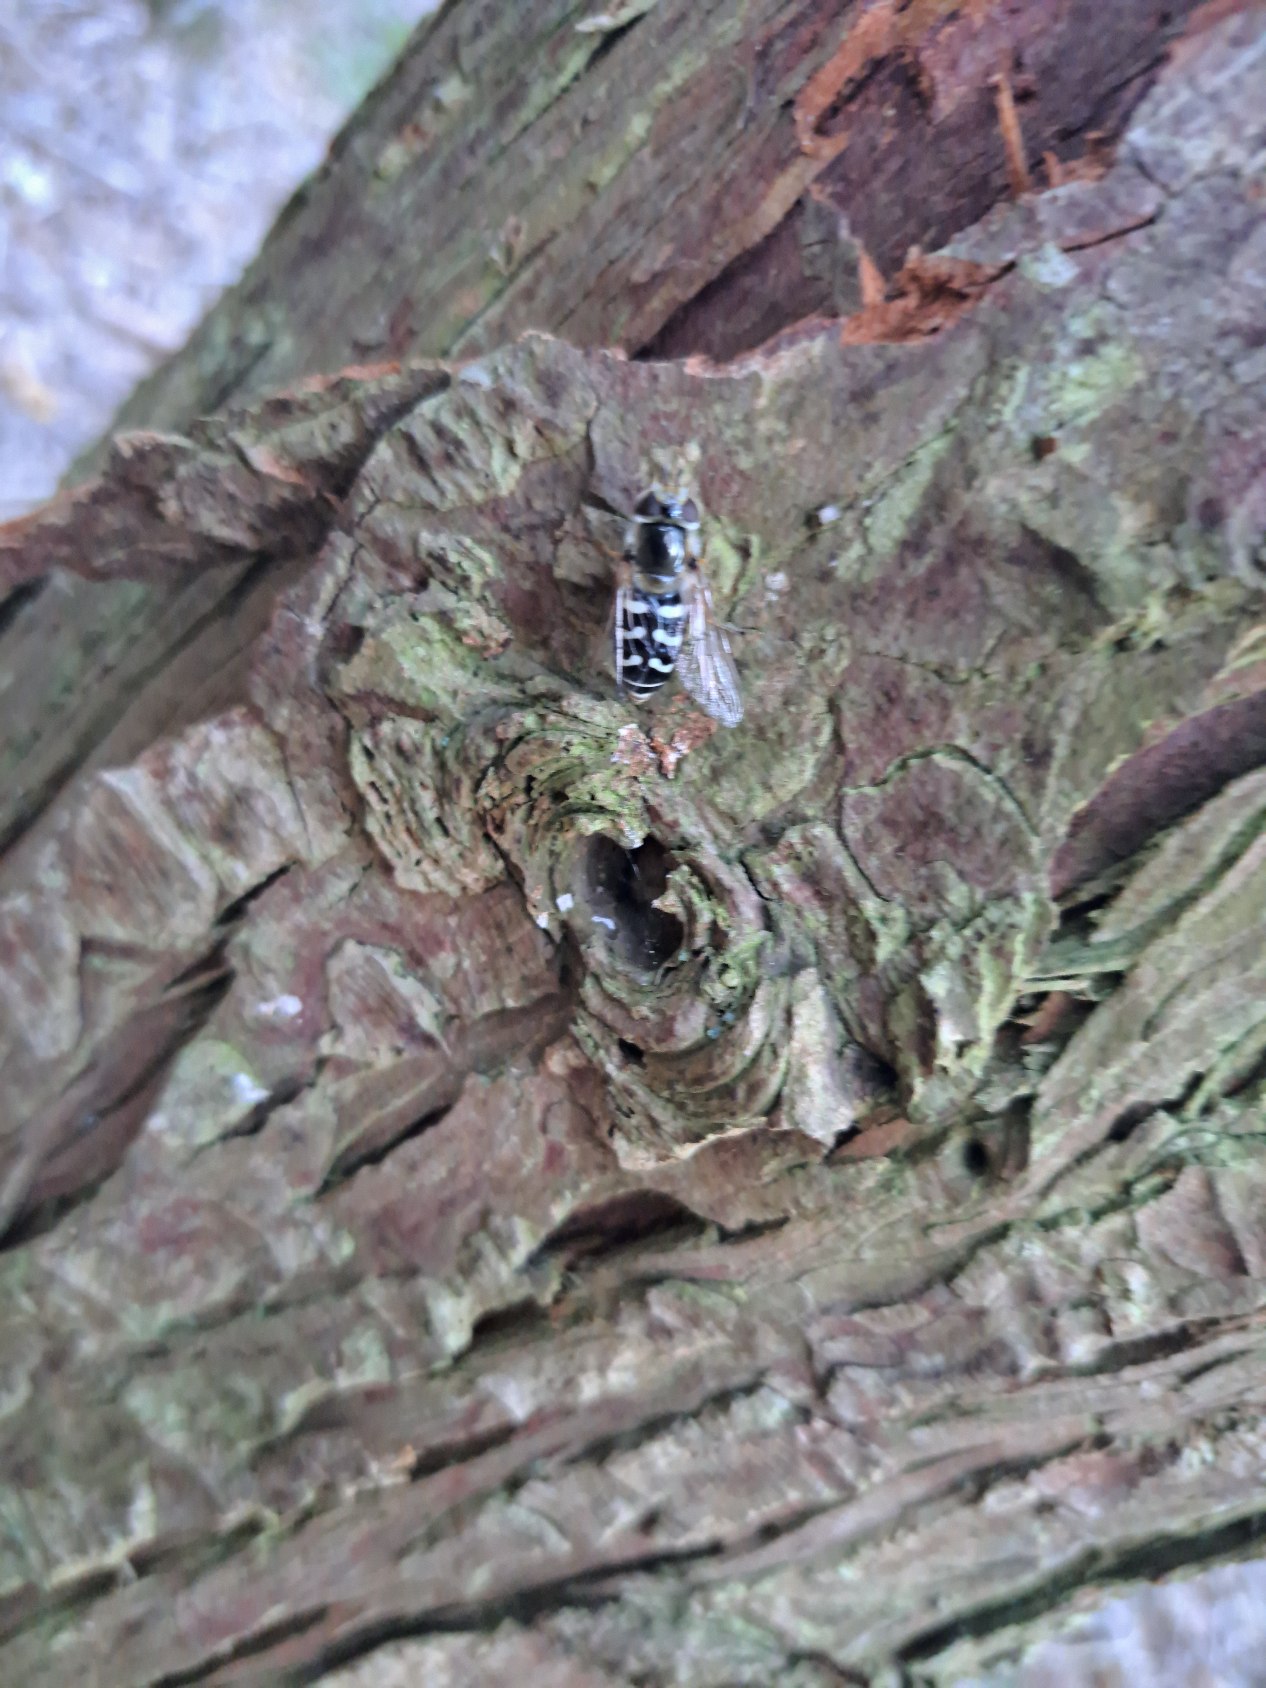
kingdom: Animalia
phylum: Arthropoda
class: Insecta
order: Diptera
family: Syrphidae
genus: Scaeva
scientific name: Scaeva pyrastri
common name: Hvidplettet agersvirreflue
